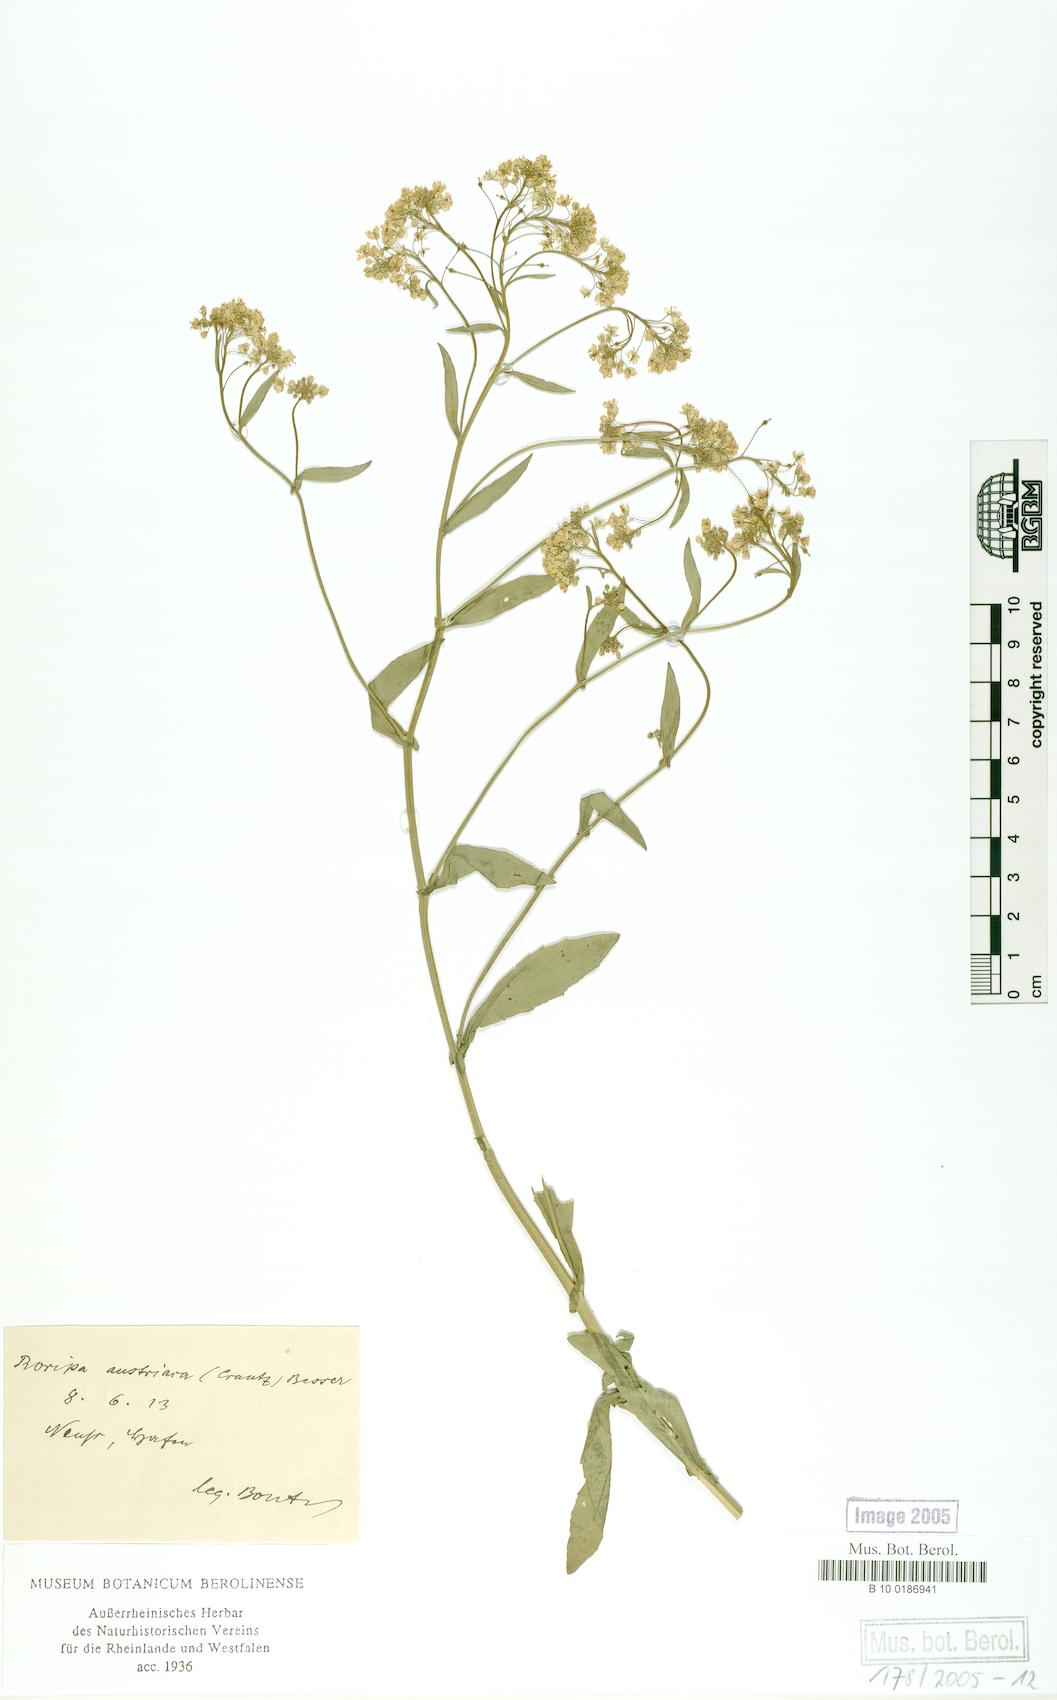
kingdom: Plantae
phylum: Tracheophyta
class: Magnoliopsida
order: Brassicales
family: Brassicaceae
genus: Rorippa
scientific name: Rorippa austriaca
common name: Austrian yellow-cress
